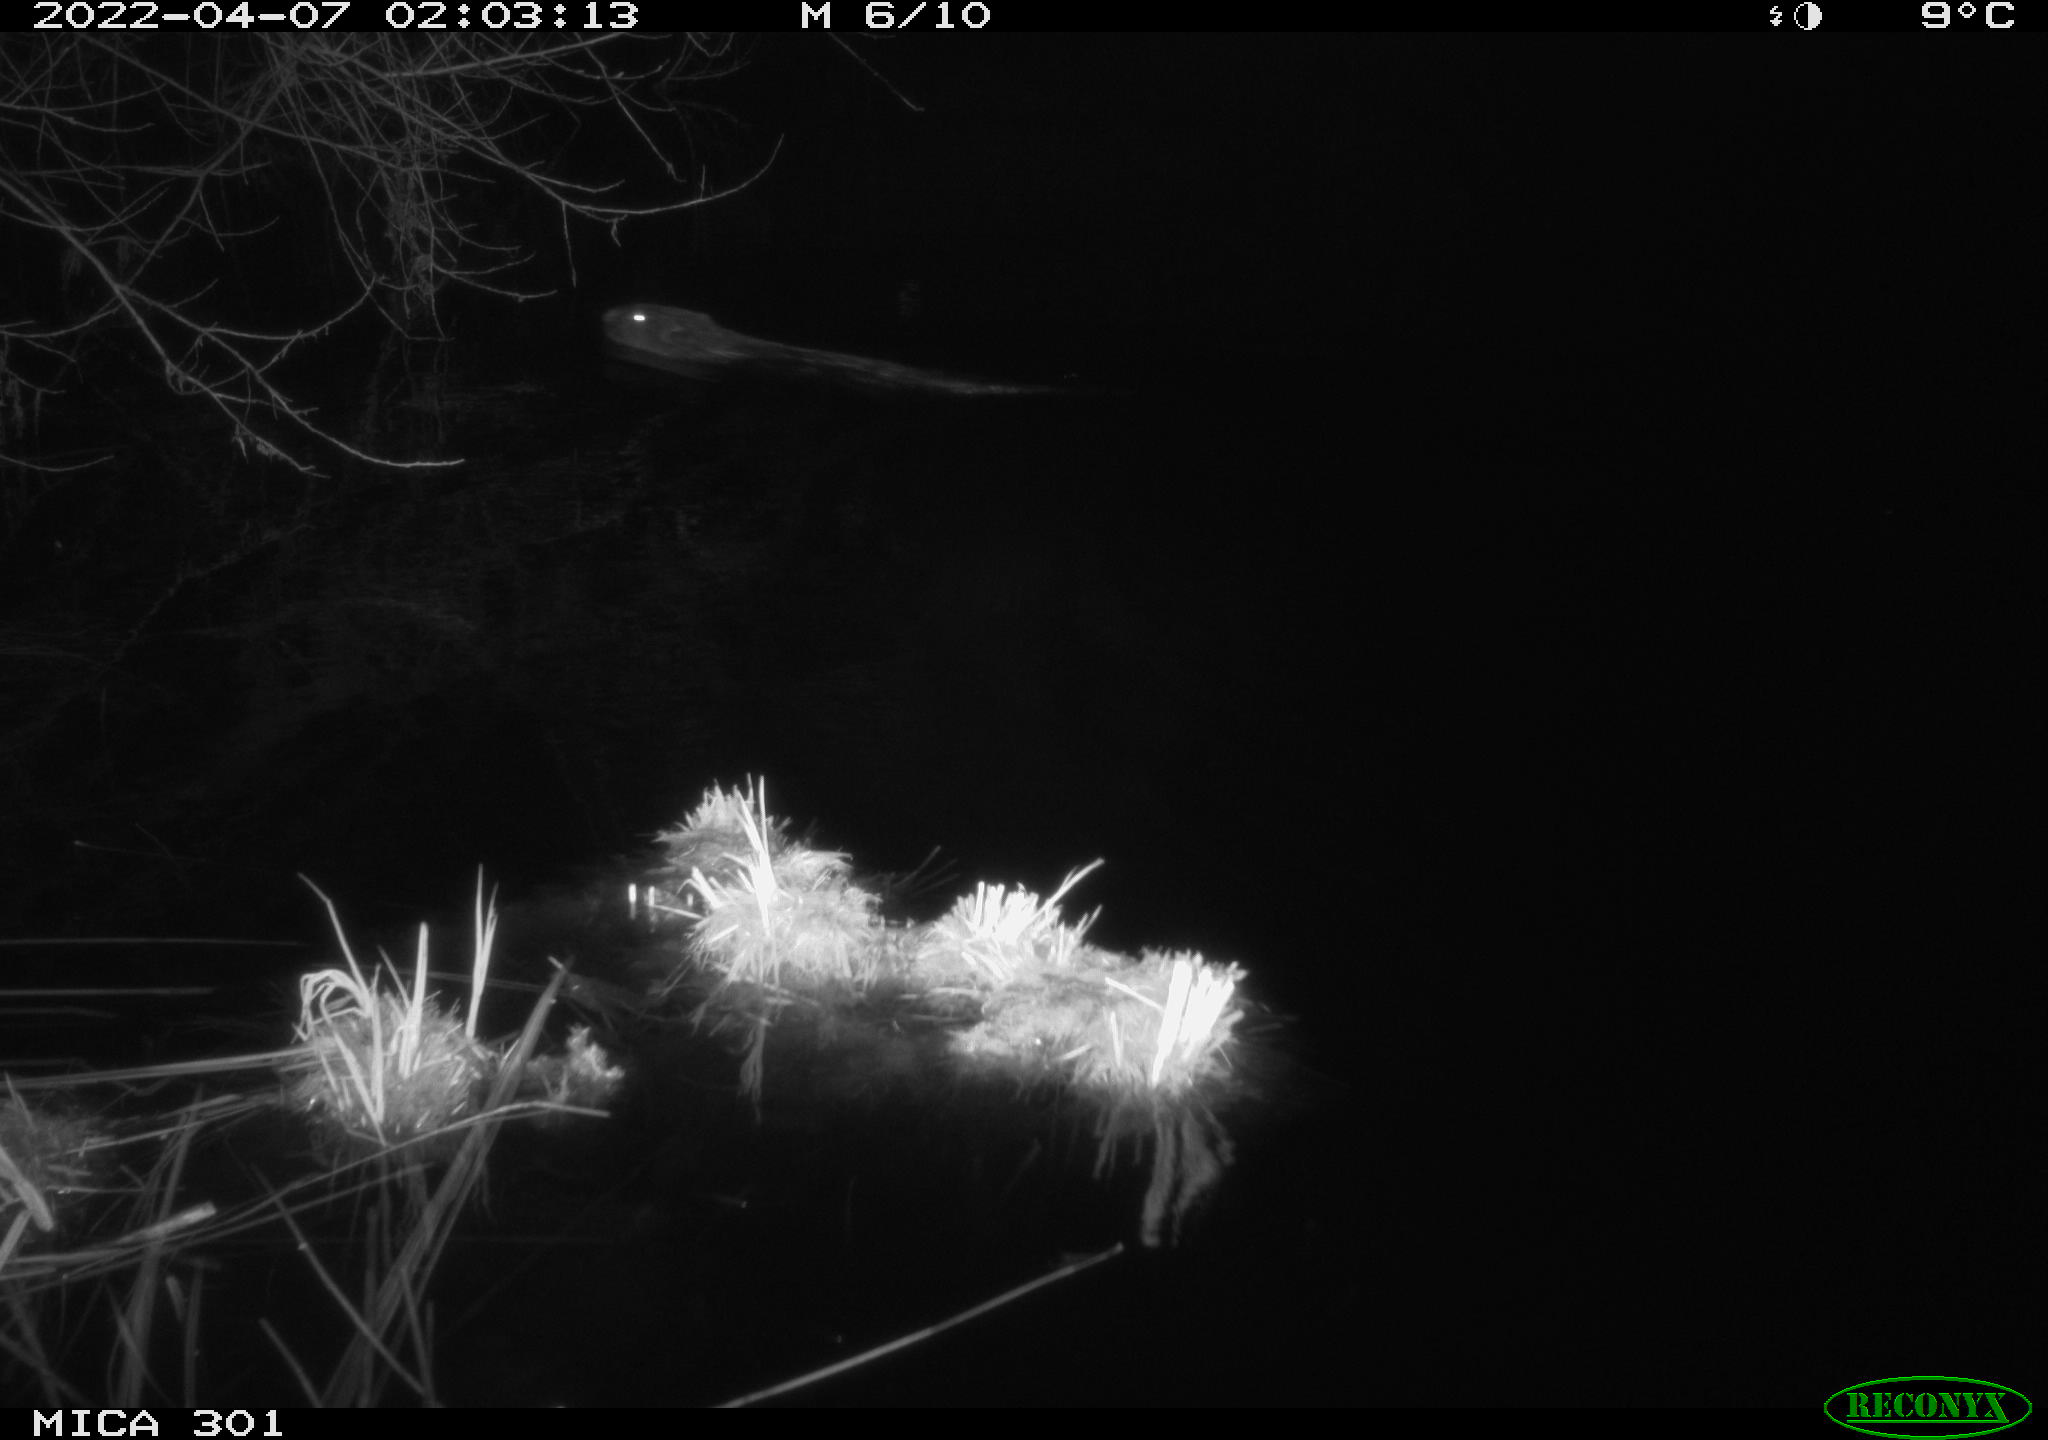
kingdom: Animalia
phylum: Chordata
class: Mammalia
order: Rodentia
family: Castoridae
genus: Castor
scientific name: Castor fiber
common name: Eurasian beaver
